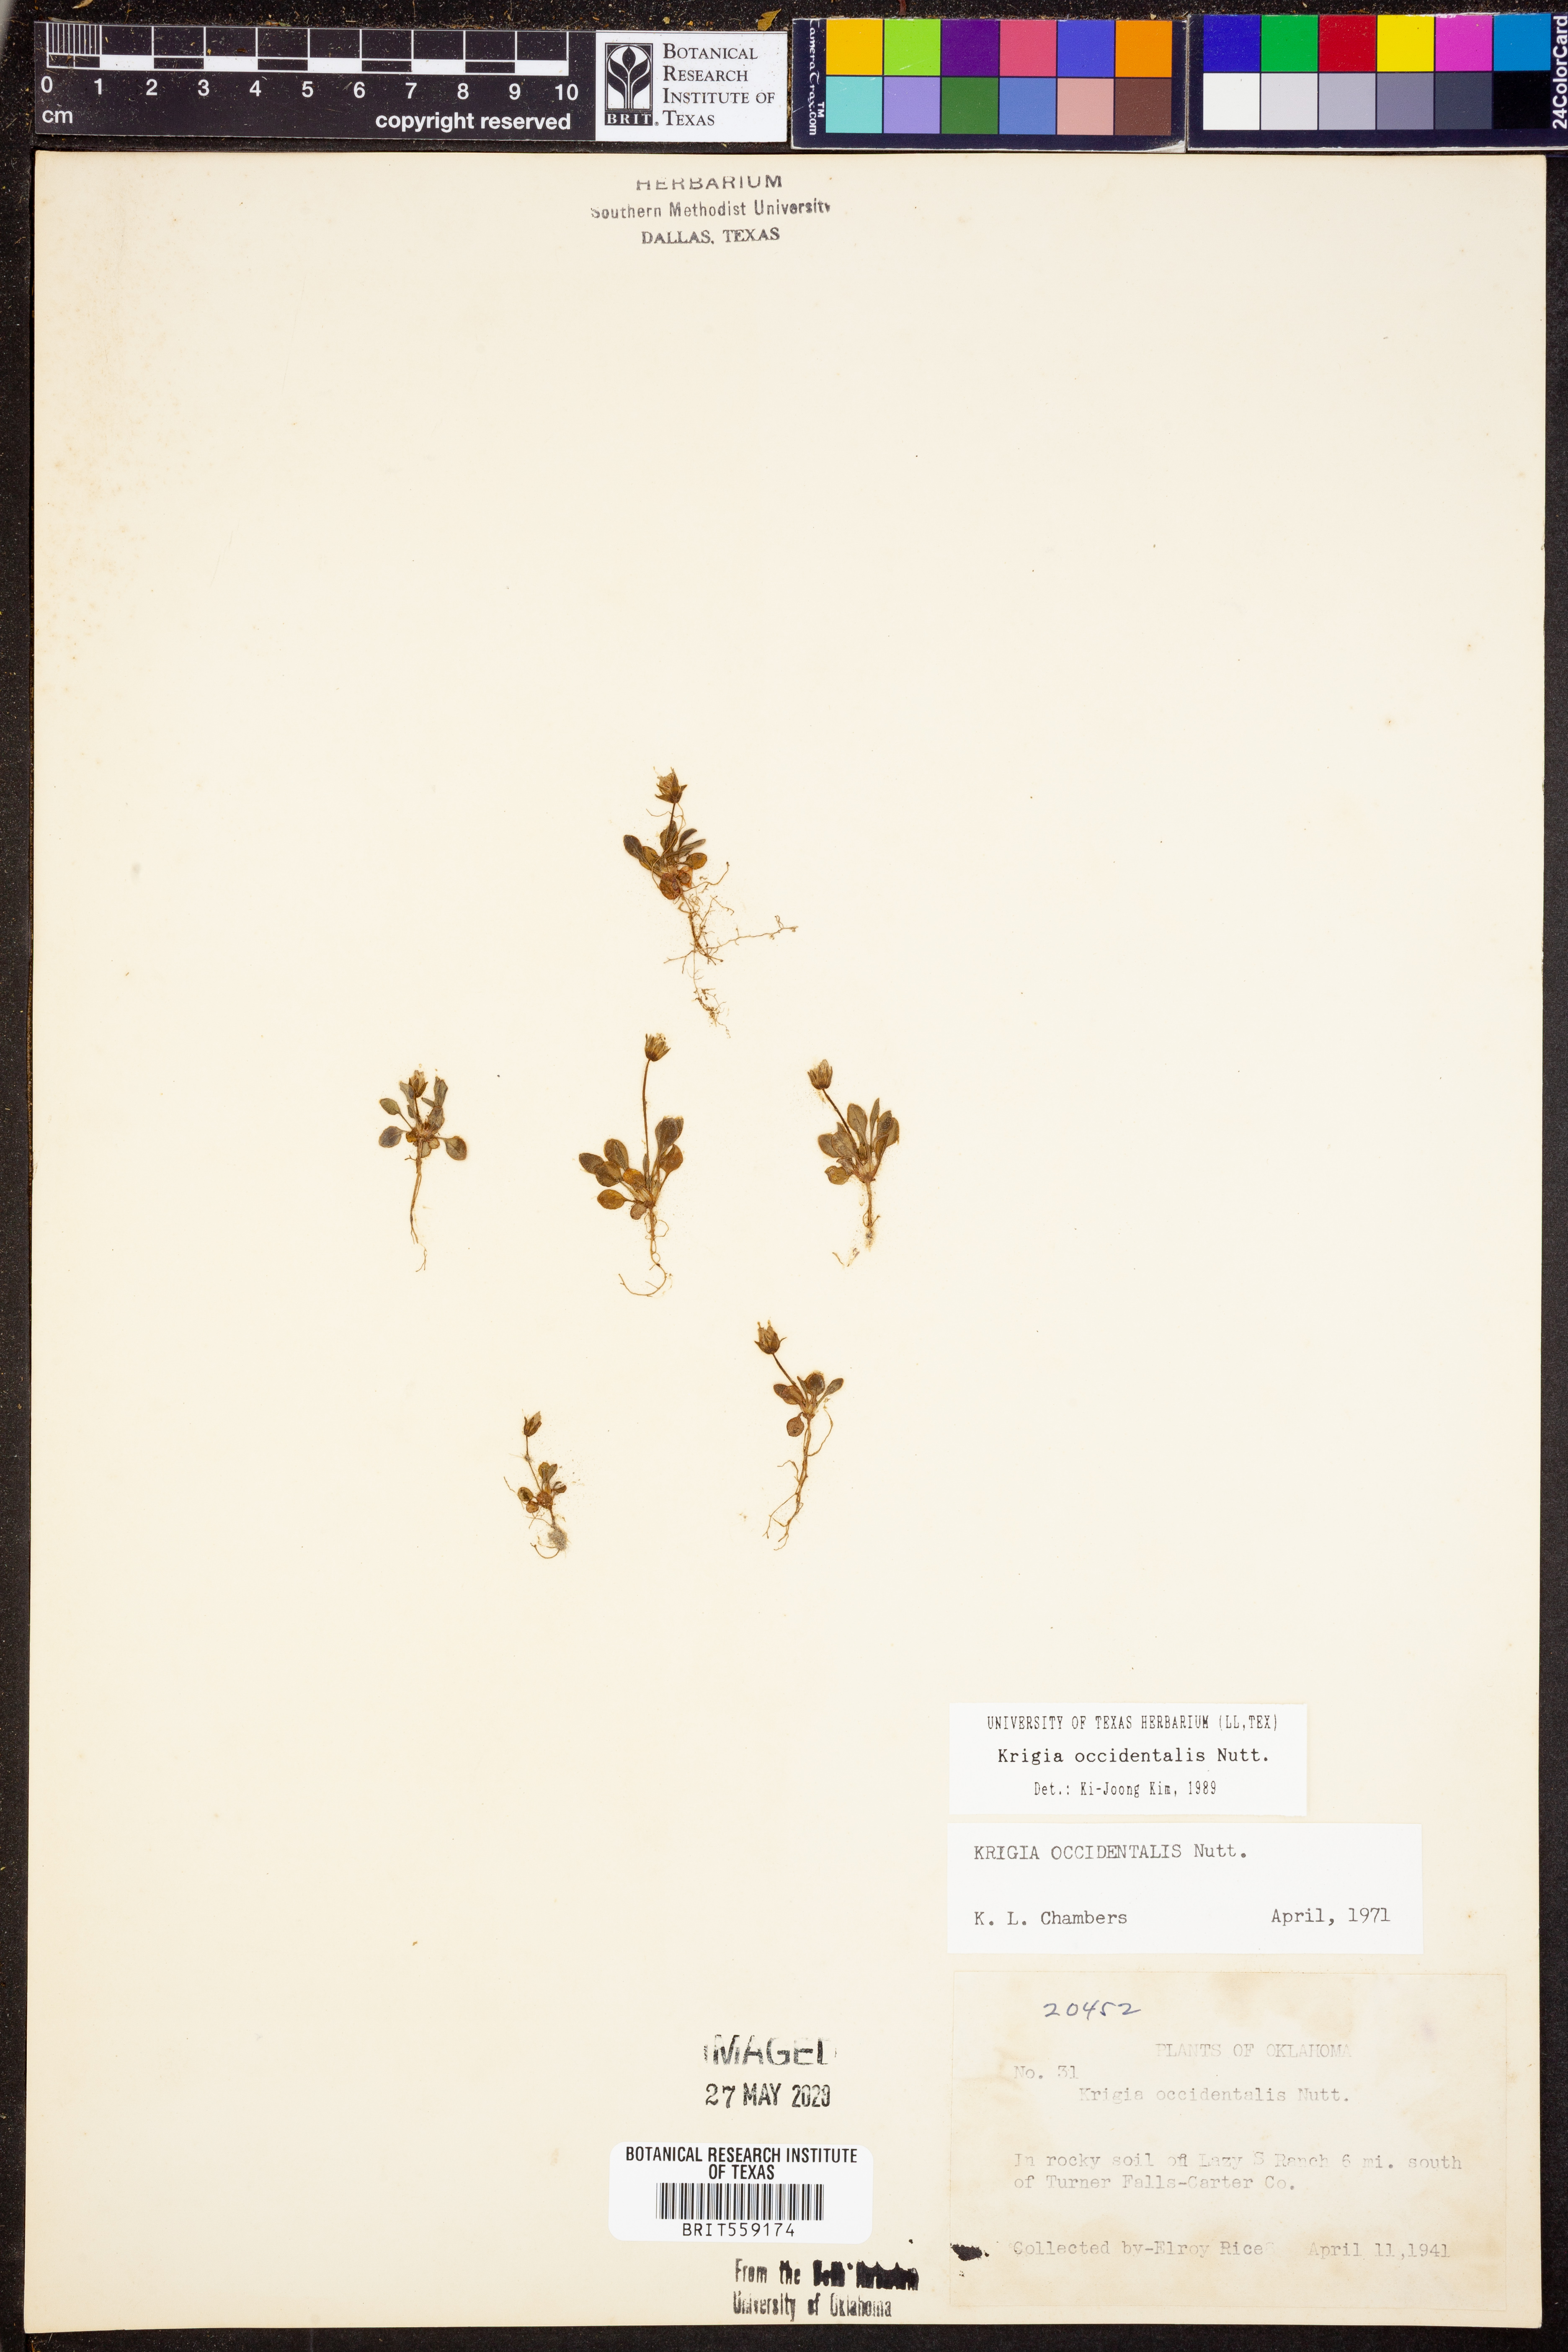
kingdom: Plantae
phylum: Tracheophyta
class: Magnoliopsida
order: Asterales
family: Asteraceae
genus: Krigia
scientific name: Krigia occidentalis
